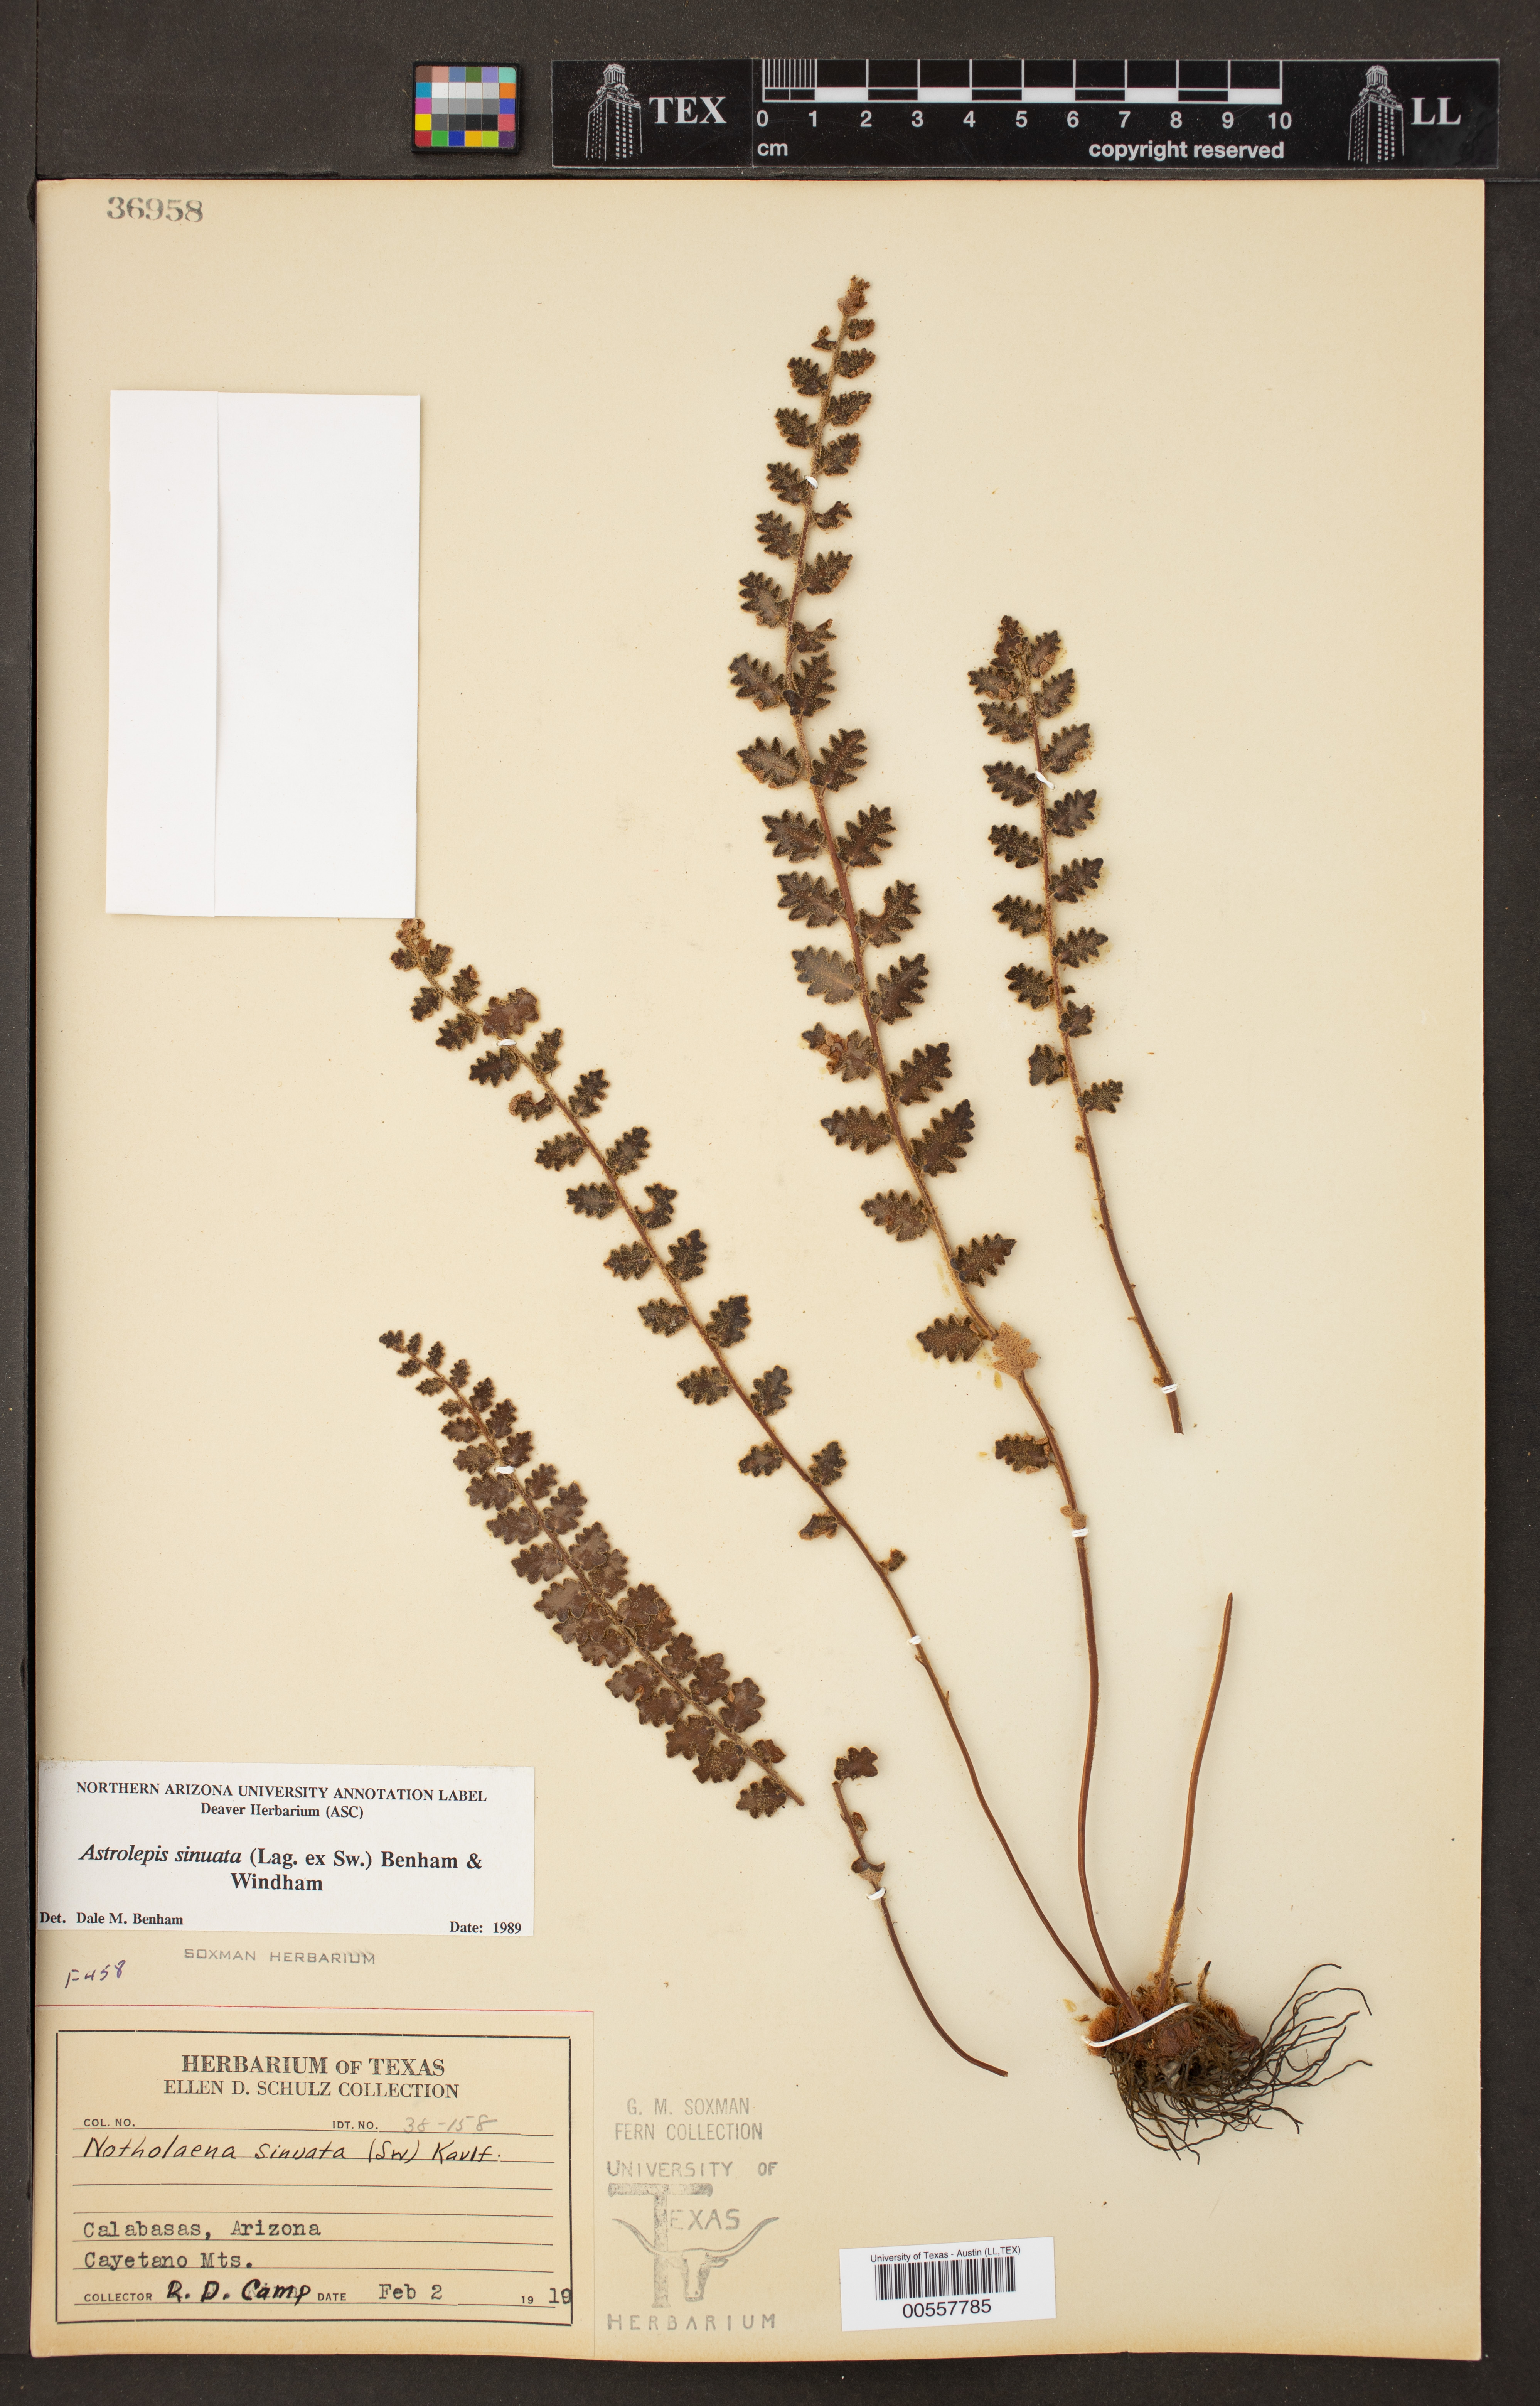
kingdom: Plantae
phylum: Tracheophyta
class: Polypodiopsida
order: Polypodiales
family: Pteridaceae
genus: Astrolepis
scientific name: Astrolepis sinuata
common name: Wavy scaly cloakfern
